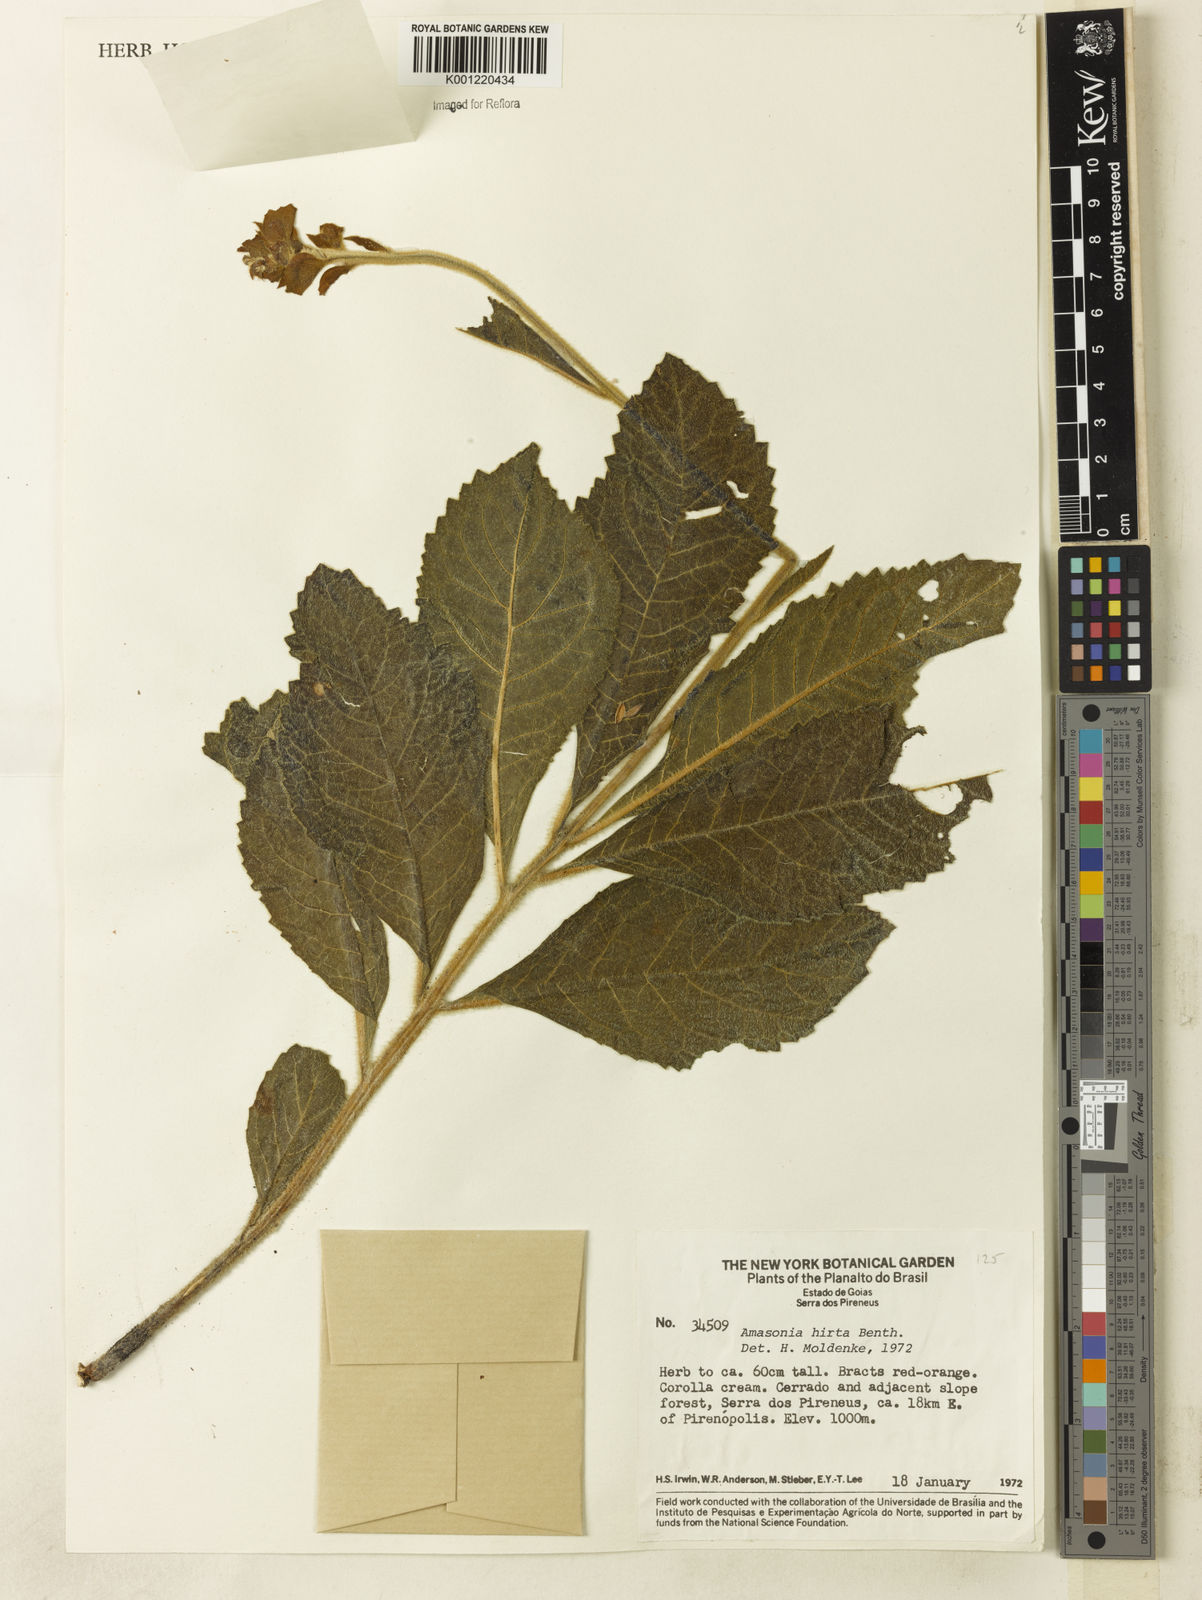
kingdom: Plantae
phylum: Tracheophyta
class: Magnoliopsida
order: Lamiales
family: Lamiaceae
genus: Amasonia
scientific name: Amasonia hirta
